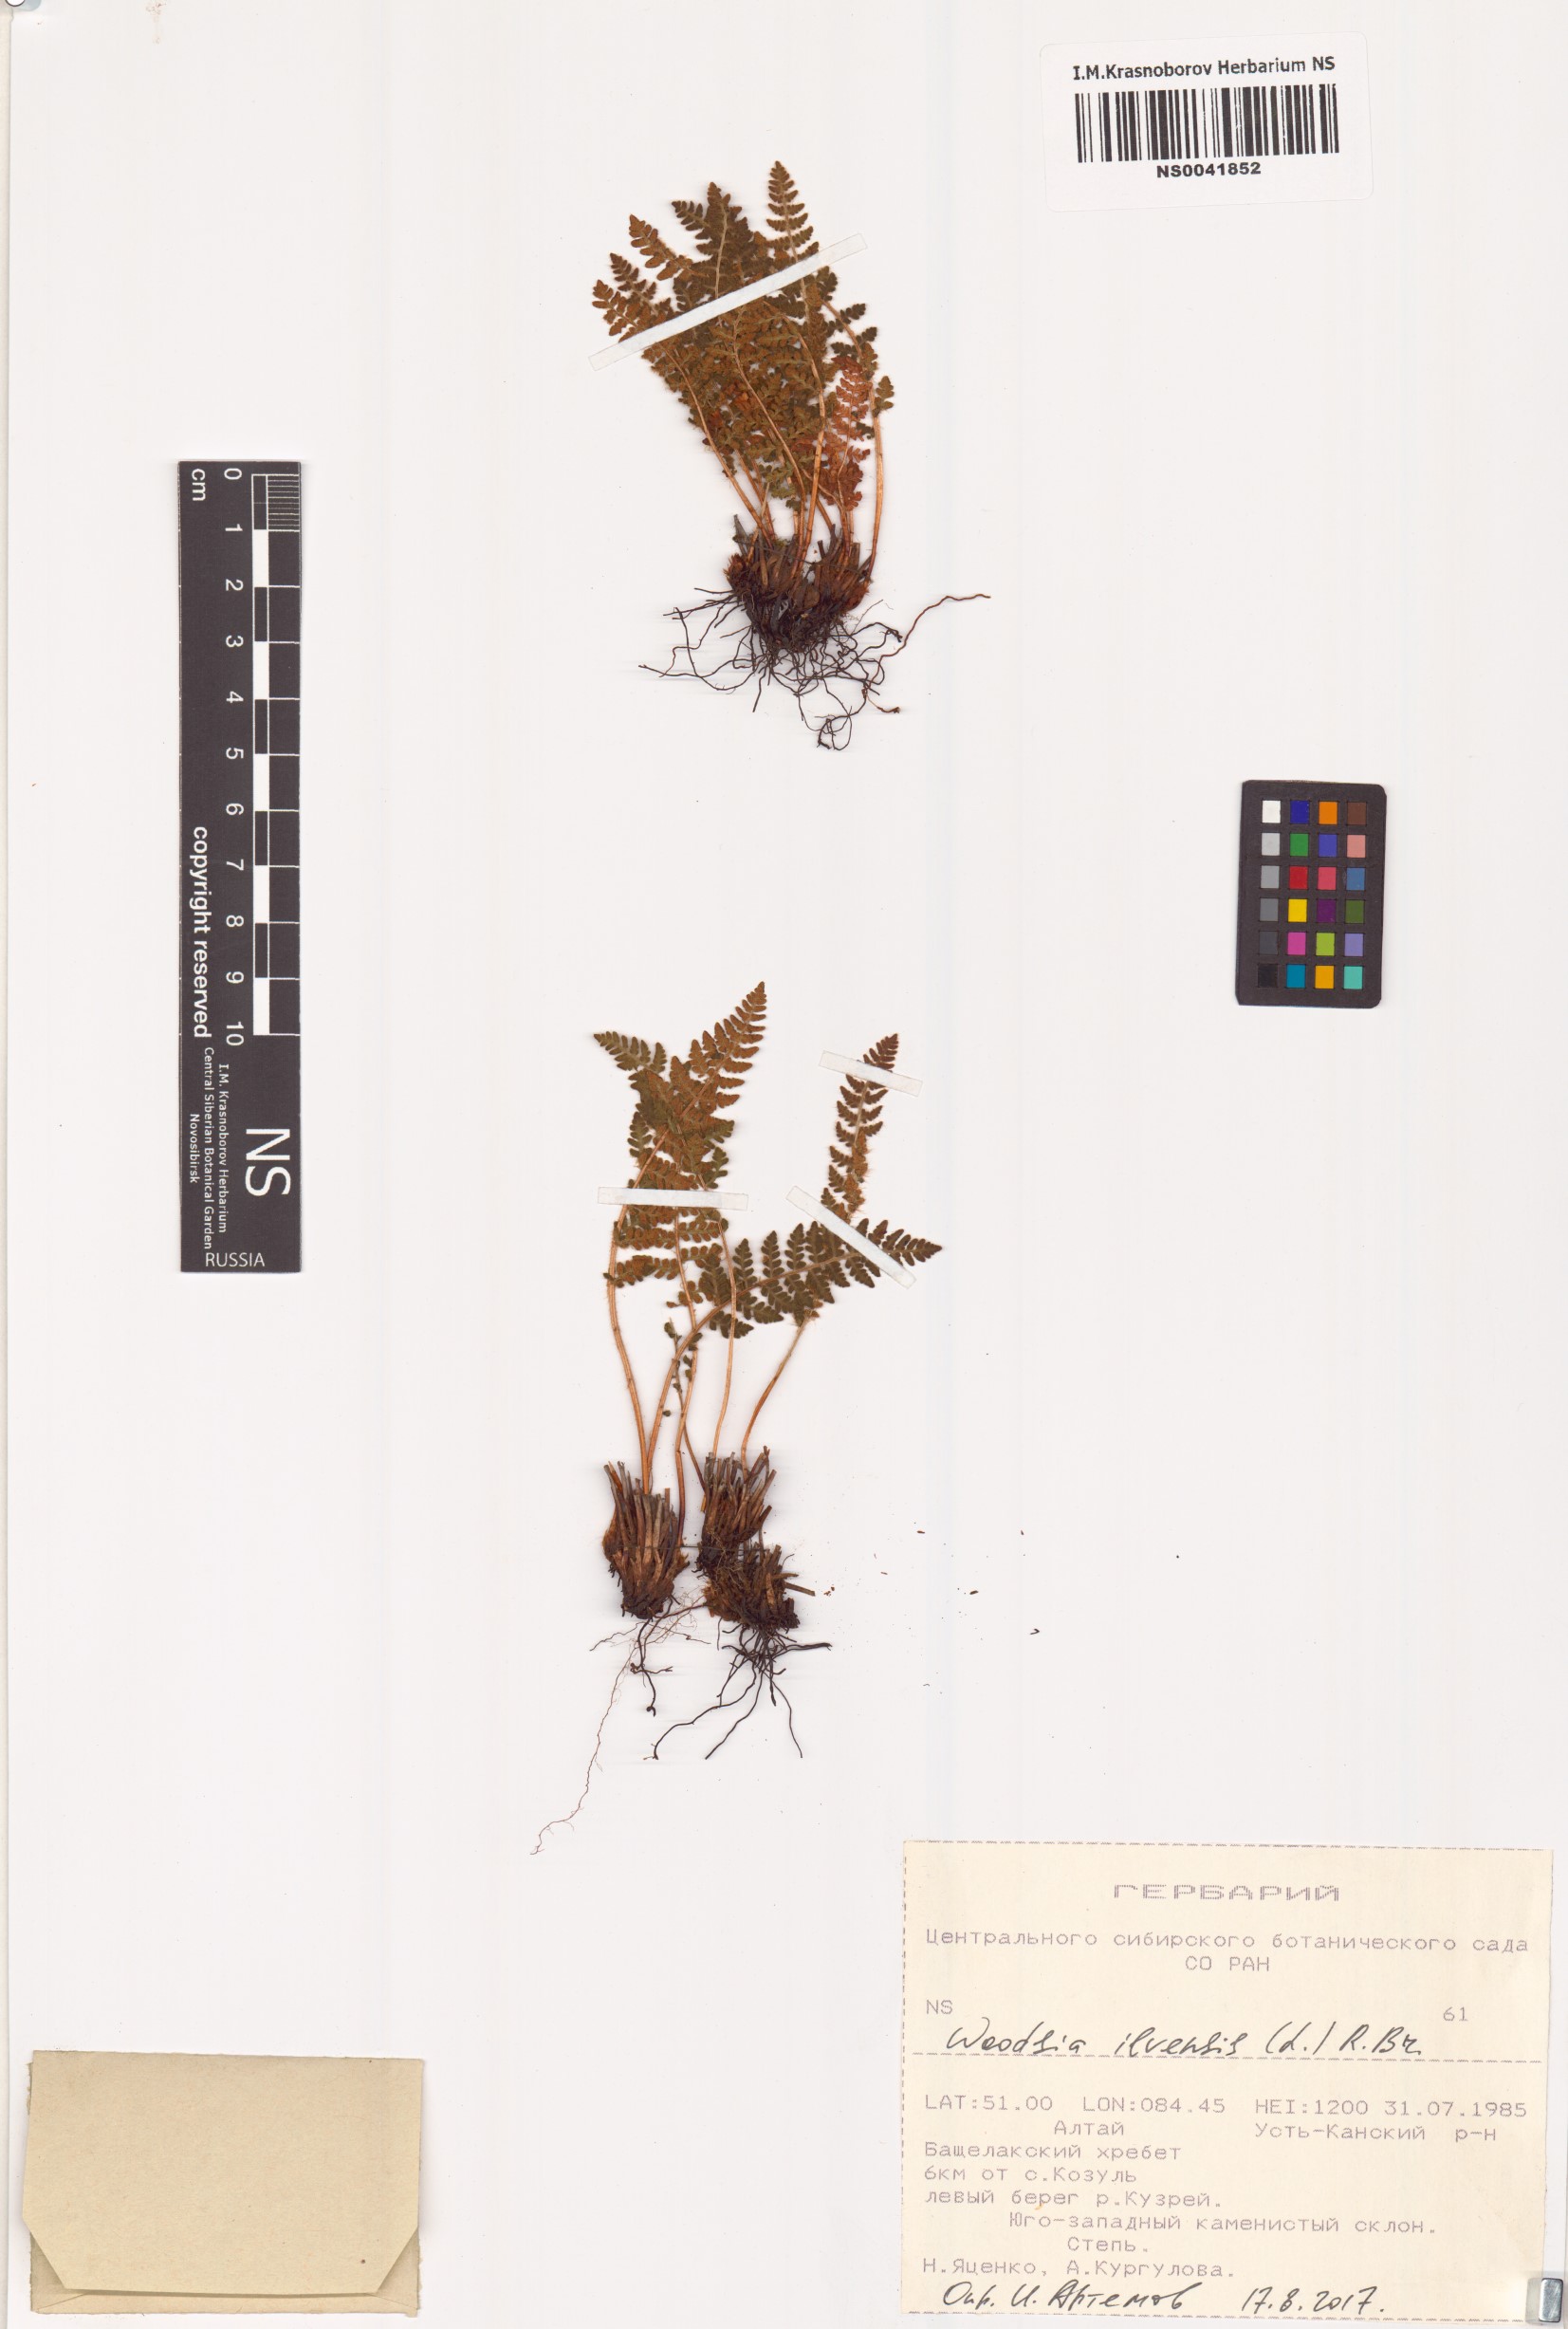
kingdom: Plantae
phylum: Tracheophyta
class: Polypodiopsida
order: Polypodiales
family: Woodsiaceae
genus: Woodsia
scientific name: Woodsia ilvensis
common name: Fragrant woodsia
